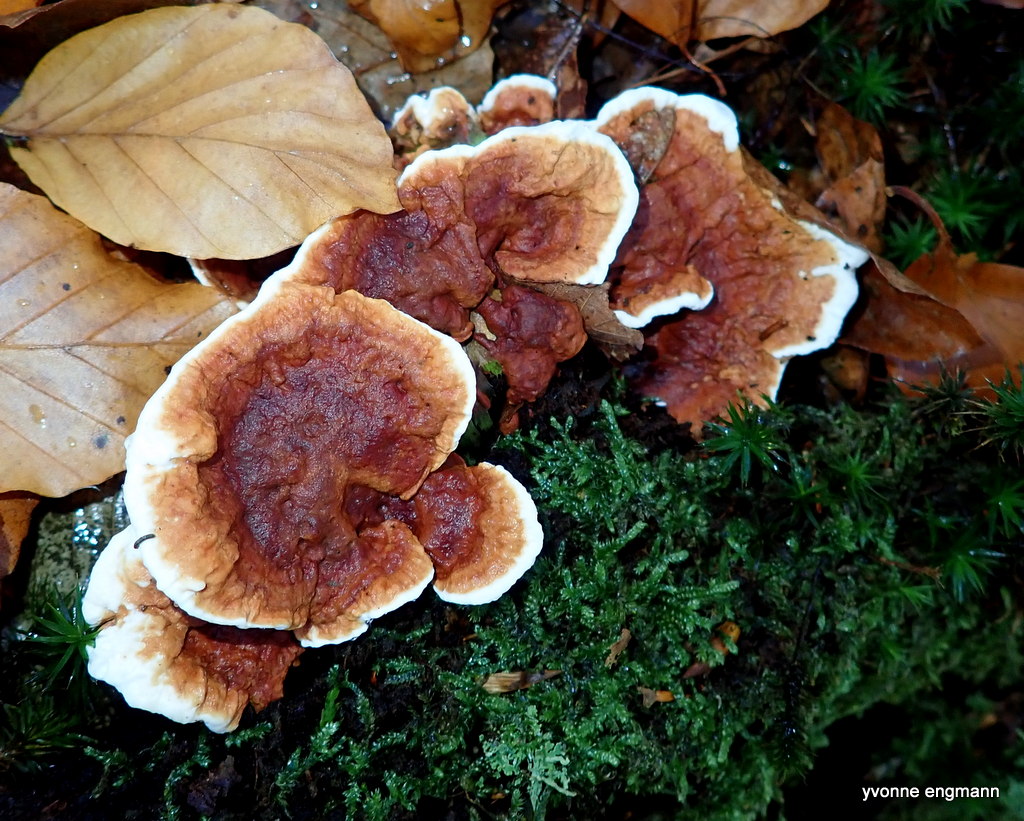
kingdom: Fungi
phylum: Basidiomycota
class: Agaricomycetes
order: Russulales
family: Bondarzewiaceae
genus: Heterobasidion
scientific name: Heterobasidion annosum
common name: almindelig rodfordærver
